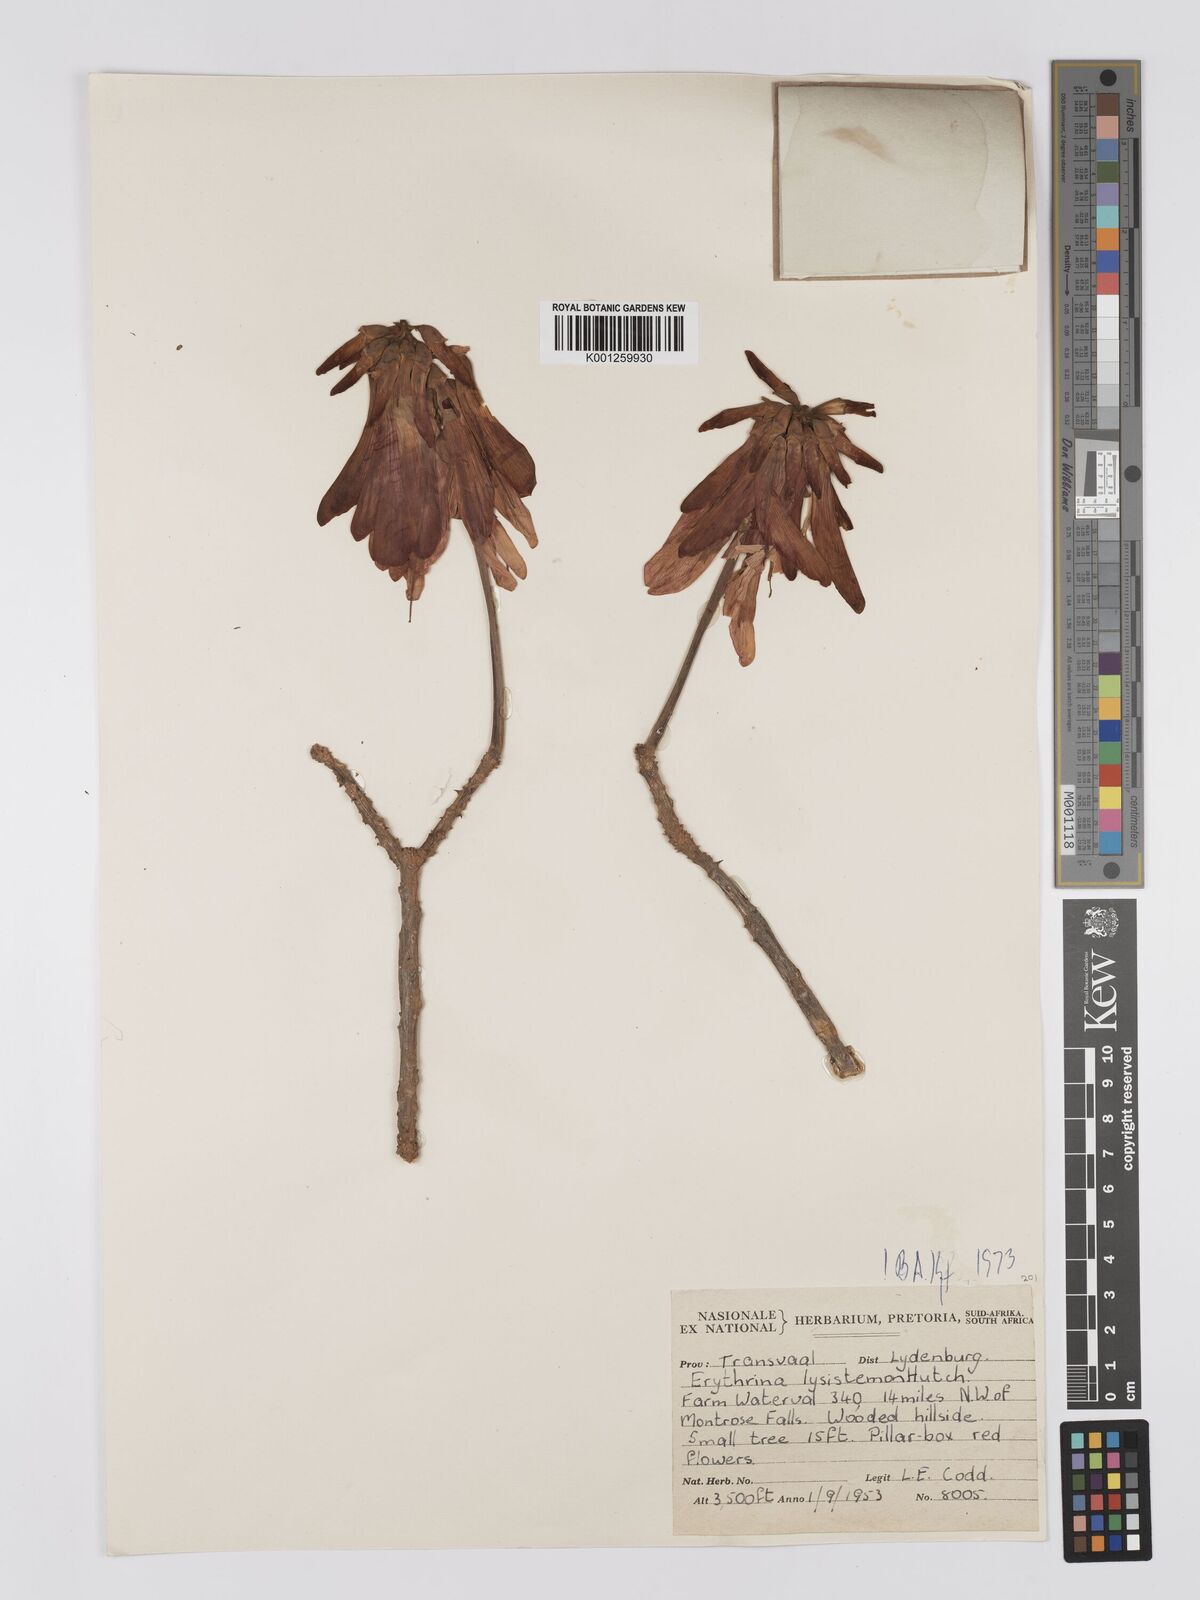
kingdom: Plantae
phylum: Tracheophyta
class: Magnoliopsida
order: Fabales
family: Fabaceae
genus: Erythrina
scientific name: Erythrina lysistemon
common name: Common coral tree
